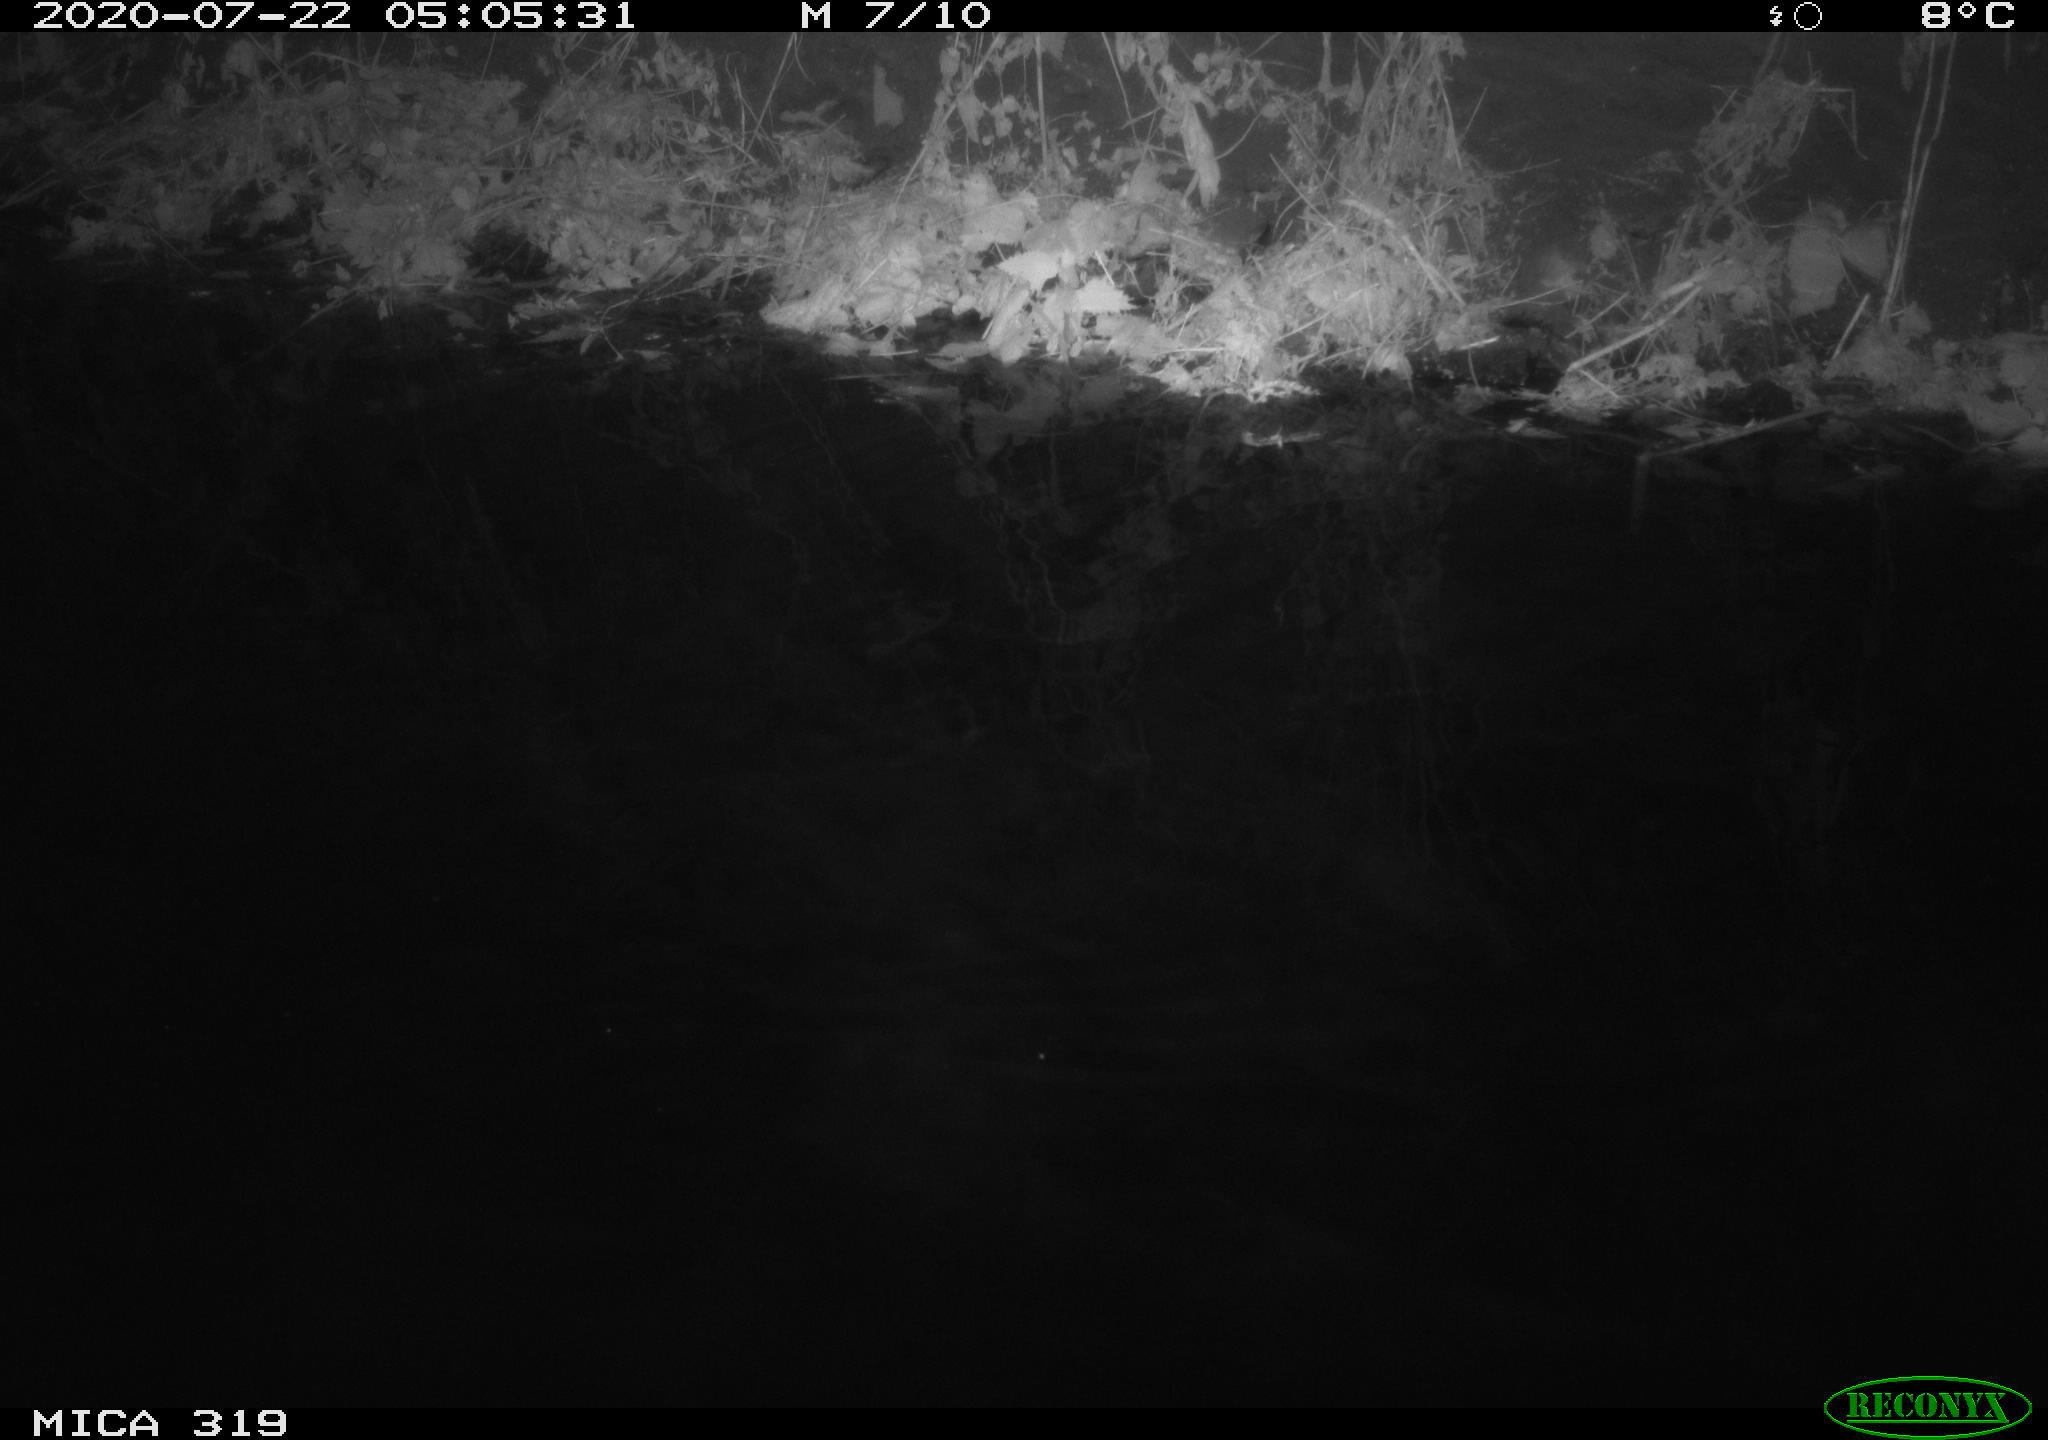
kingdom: Animalia
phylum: Chordata
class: Aves
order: Anseriformes
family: Anatidae
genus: Anas
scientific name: Anas platyrhynchos
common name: Mallard
